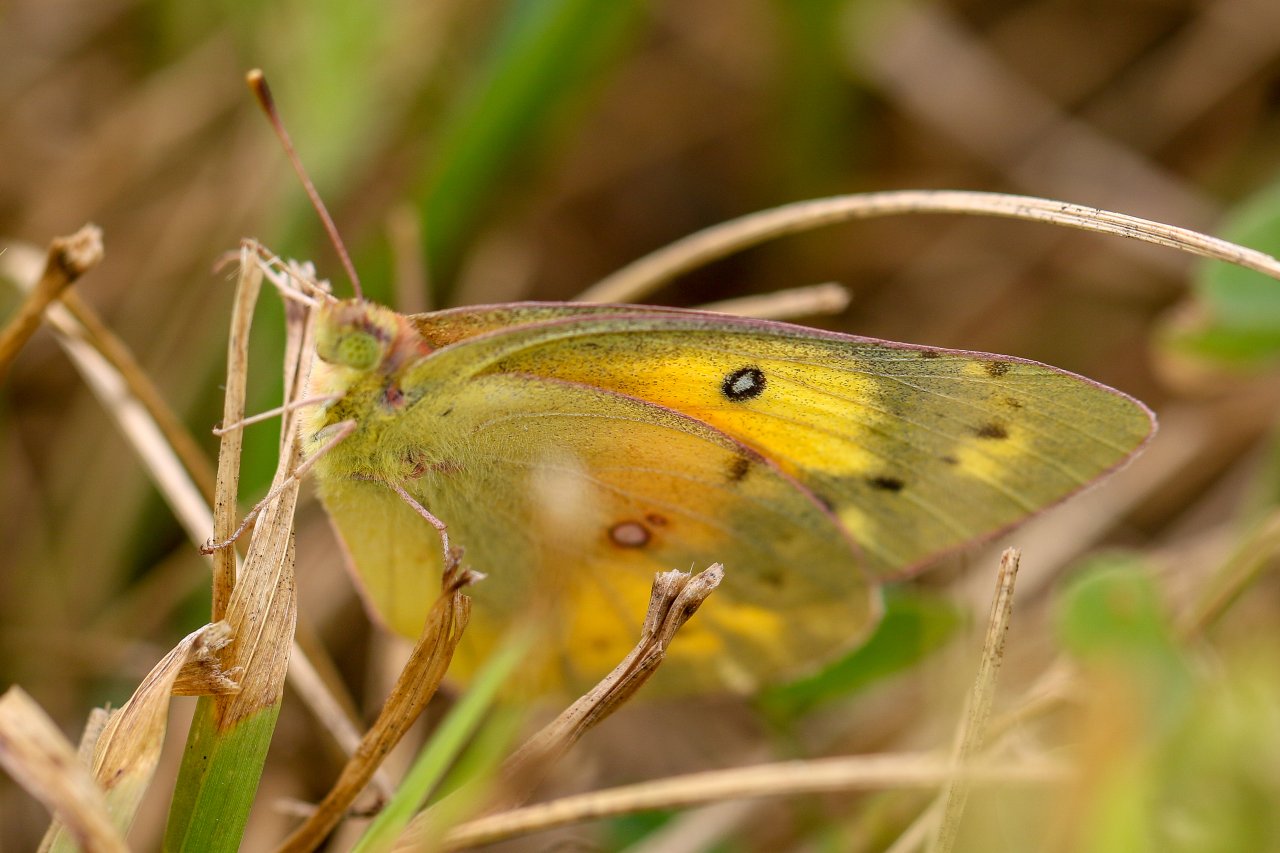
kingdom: Animalia
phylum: Arthropoda
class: Insecta
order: Lepidoptera
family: Pieridae
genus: Colias
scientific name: Colias eurytheme
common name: Orange Sulphur
